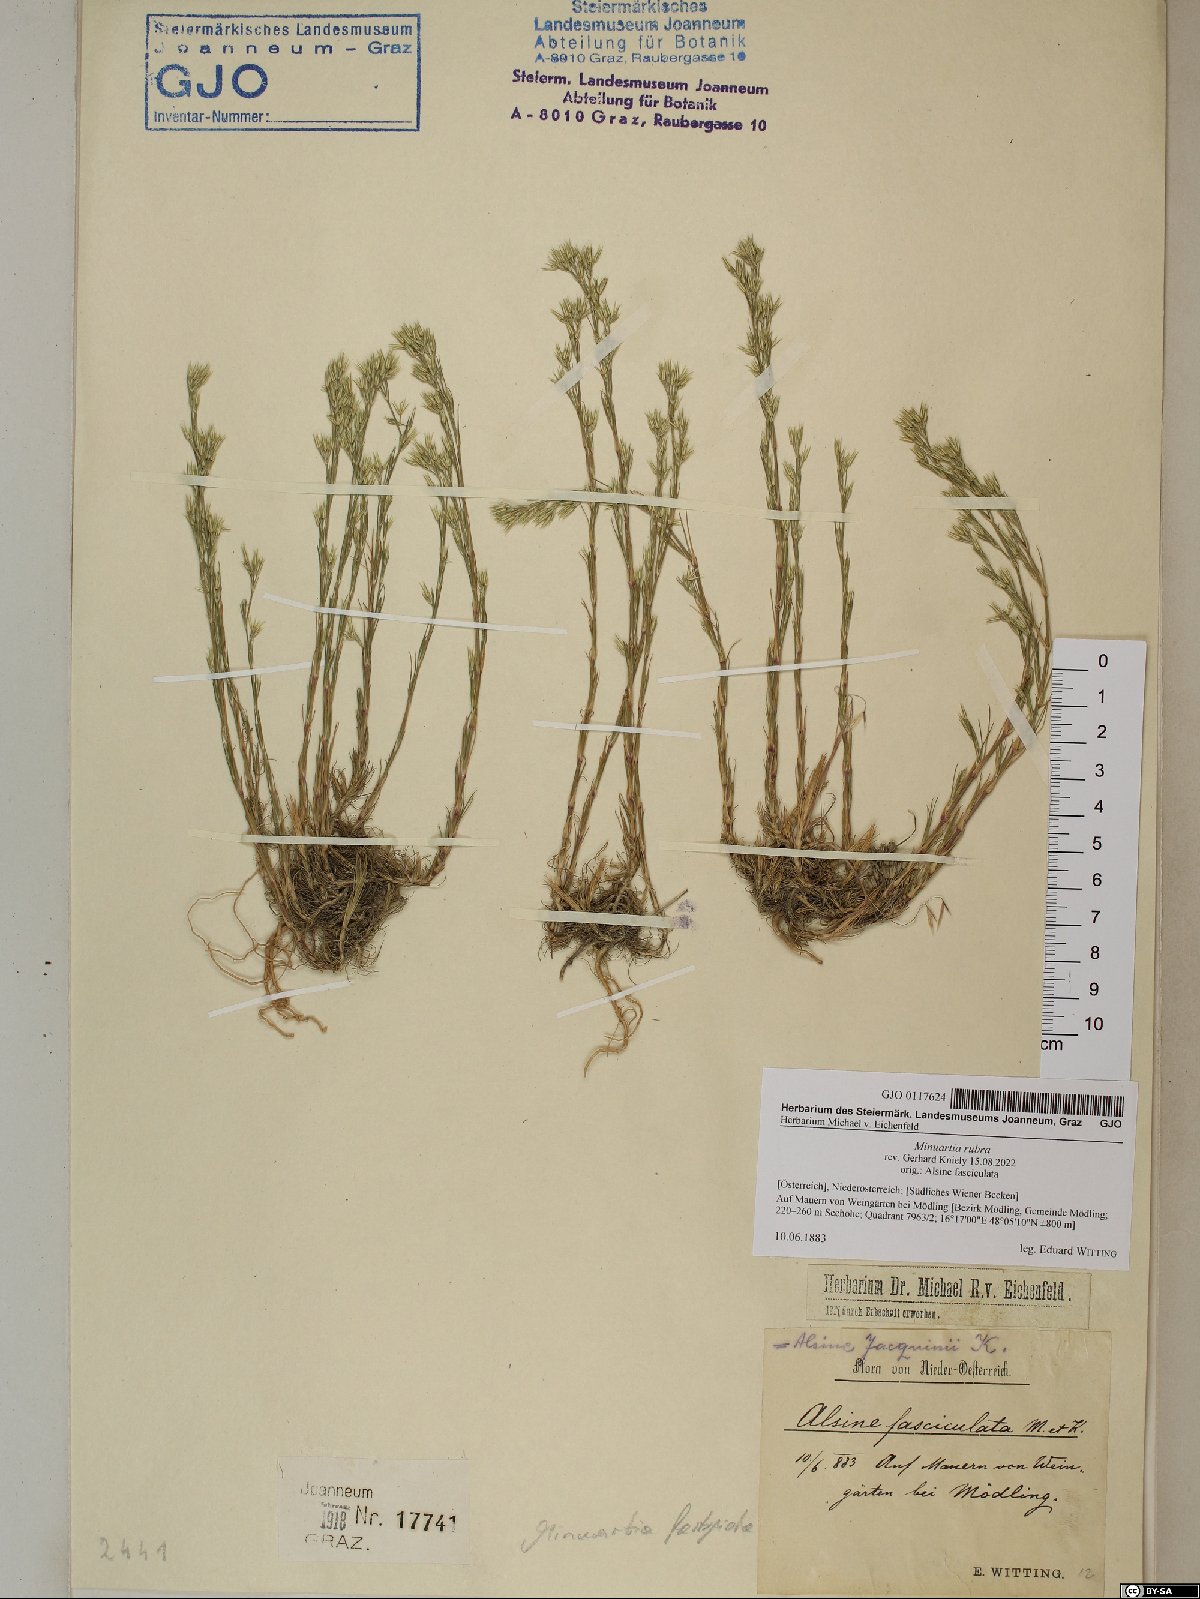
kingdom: Plantae
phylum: Tracheophyta
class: Magnoliopsida
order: Caryophyllales
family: Caryophyllaceae
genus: Minuartia
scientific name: Minuartia mucronata
